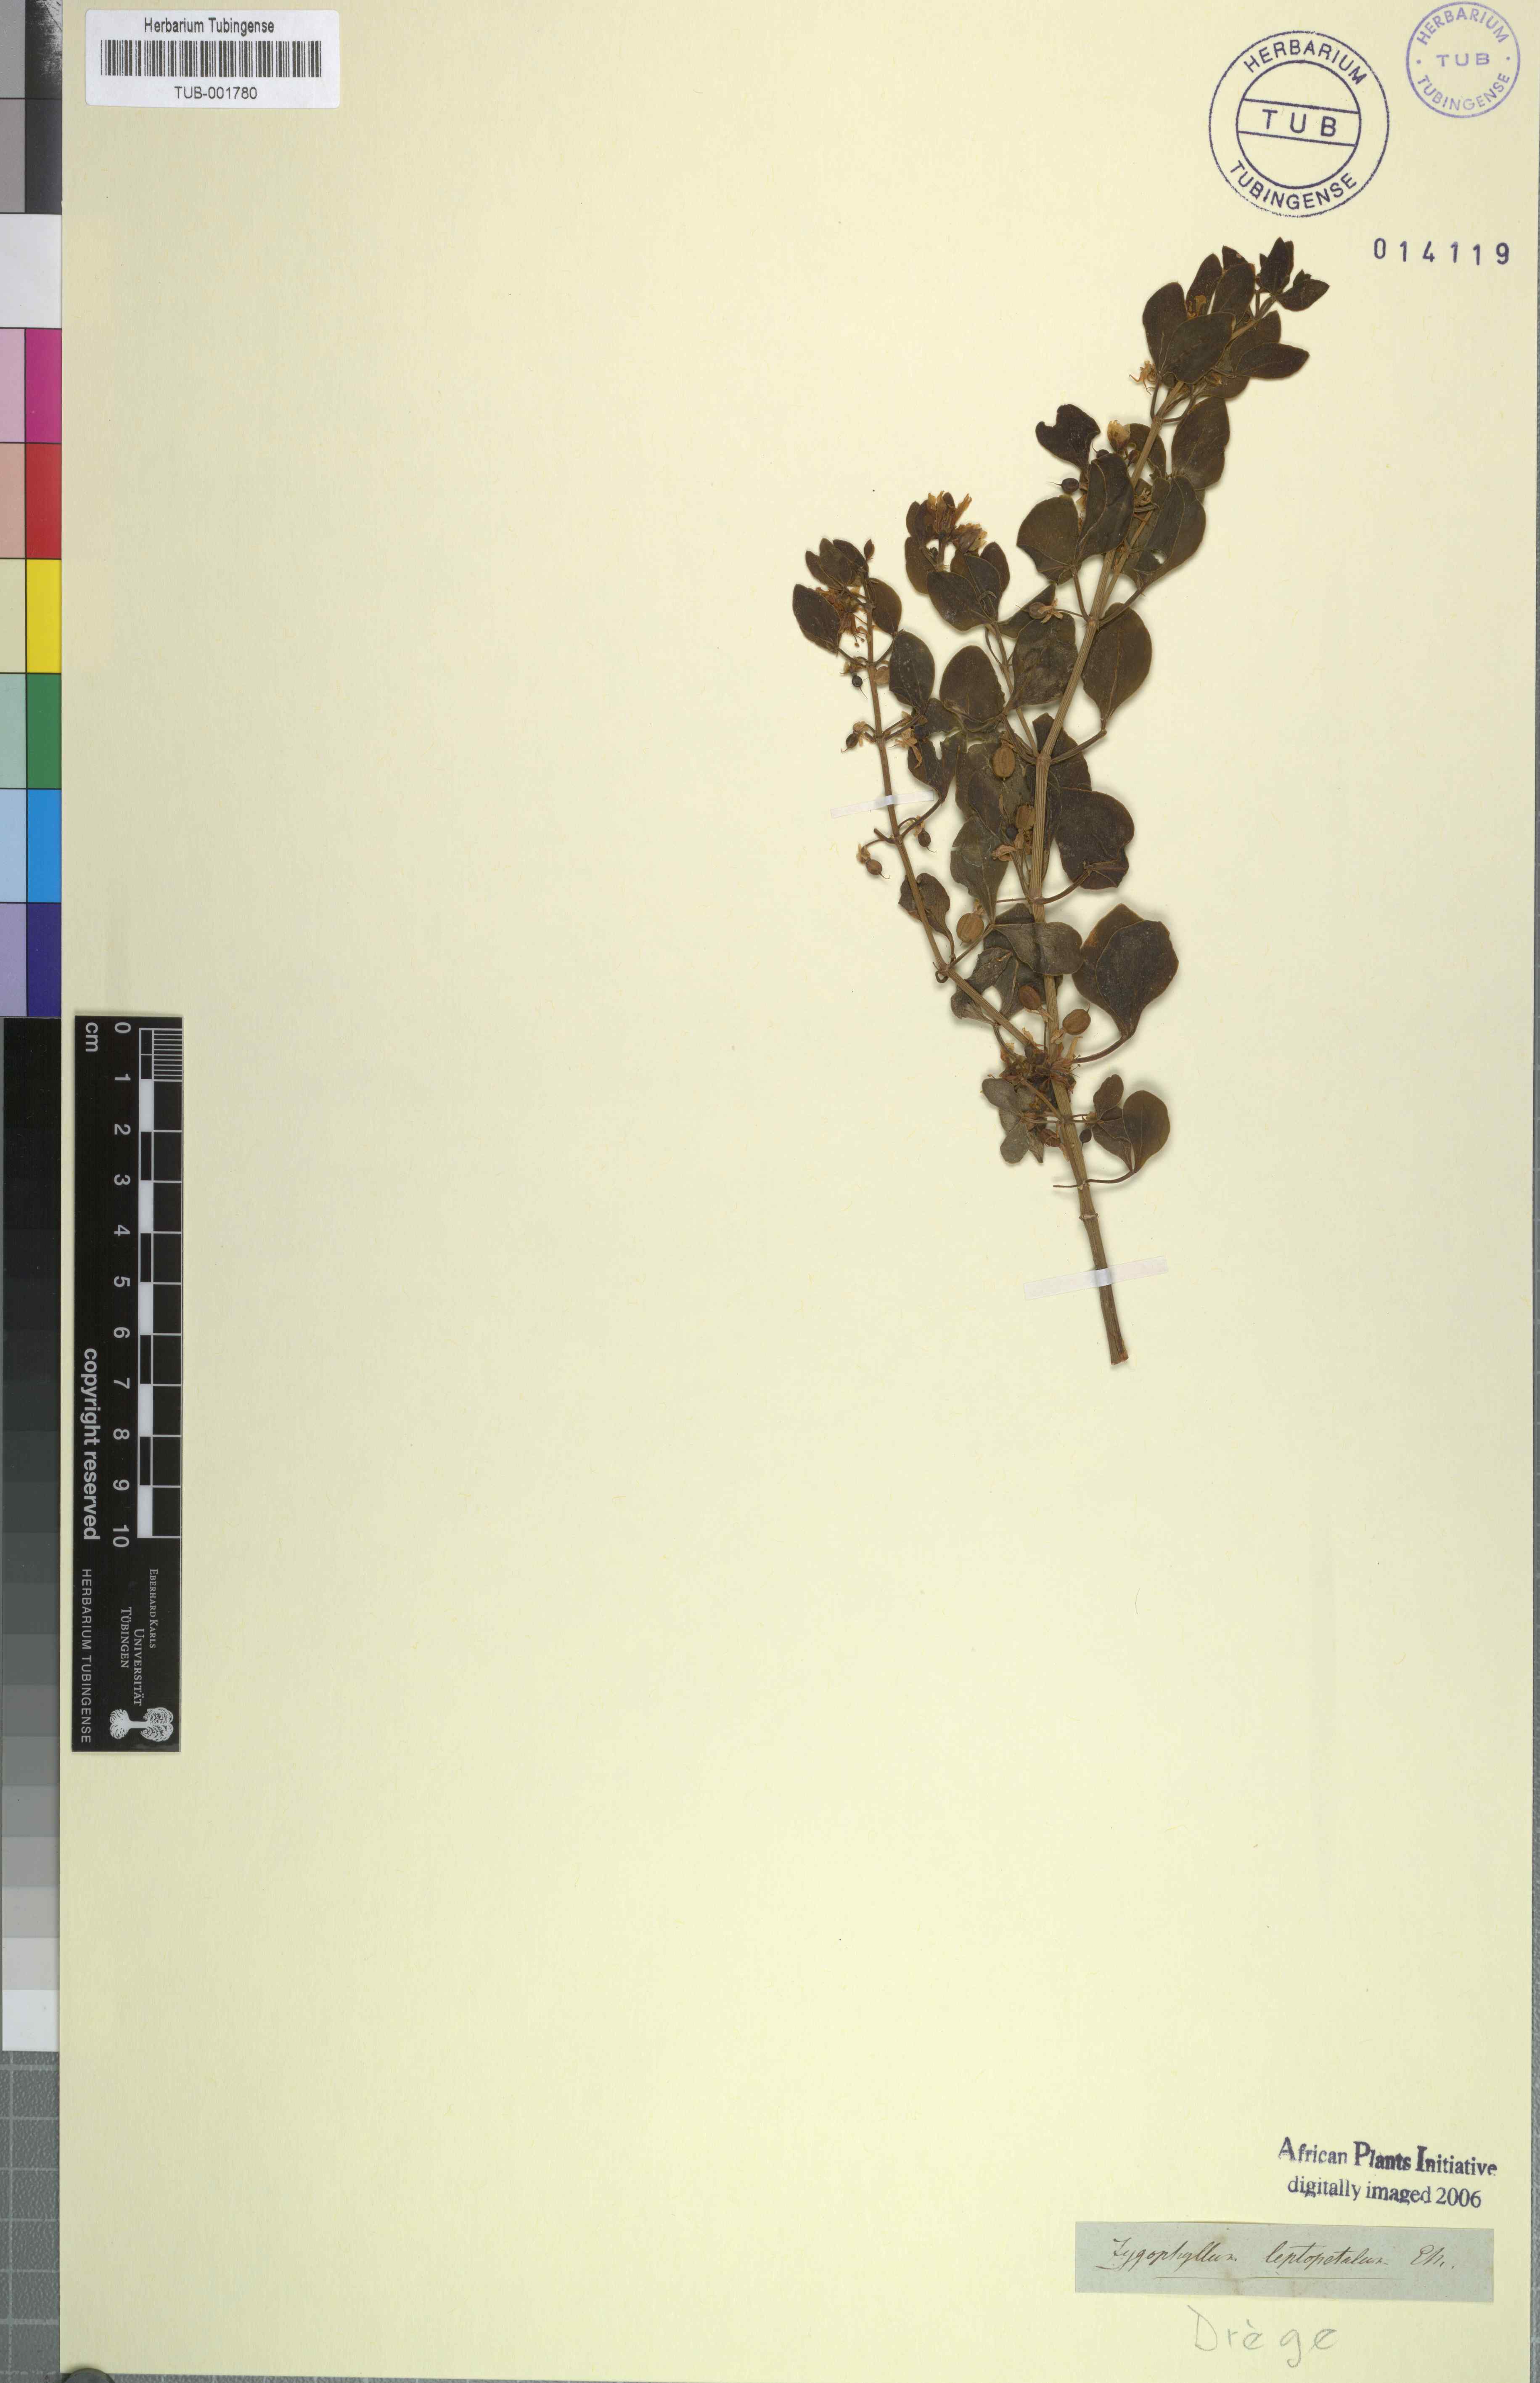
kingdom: Plantae
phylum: Tracheophyta
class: Magnoliopsida
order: Zygophyllales
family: Zygophyllaceae
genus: Roepera
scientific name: Roepera leptopetala
